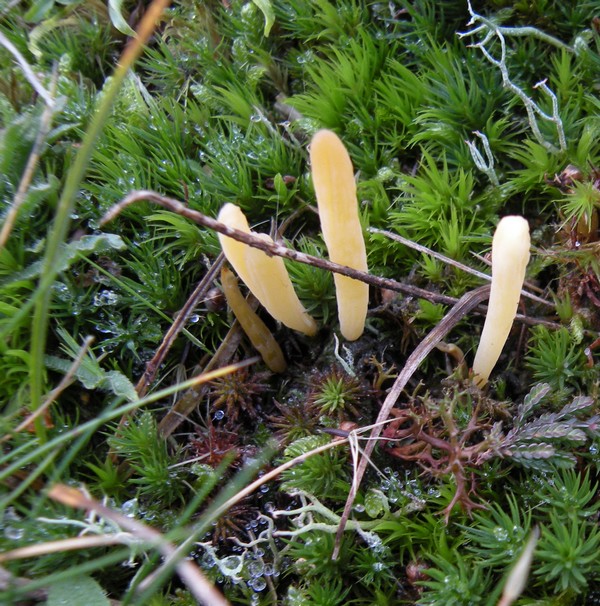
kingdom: Fungi
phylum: Basidiomycota
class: Agaricomycetes
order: Agaricales
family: Clavariaceae
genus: Clavaria
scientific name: Clavaria argillacea
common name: lerfarvet køllesvamp
